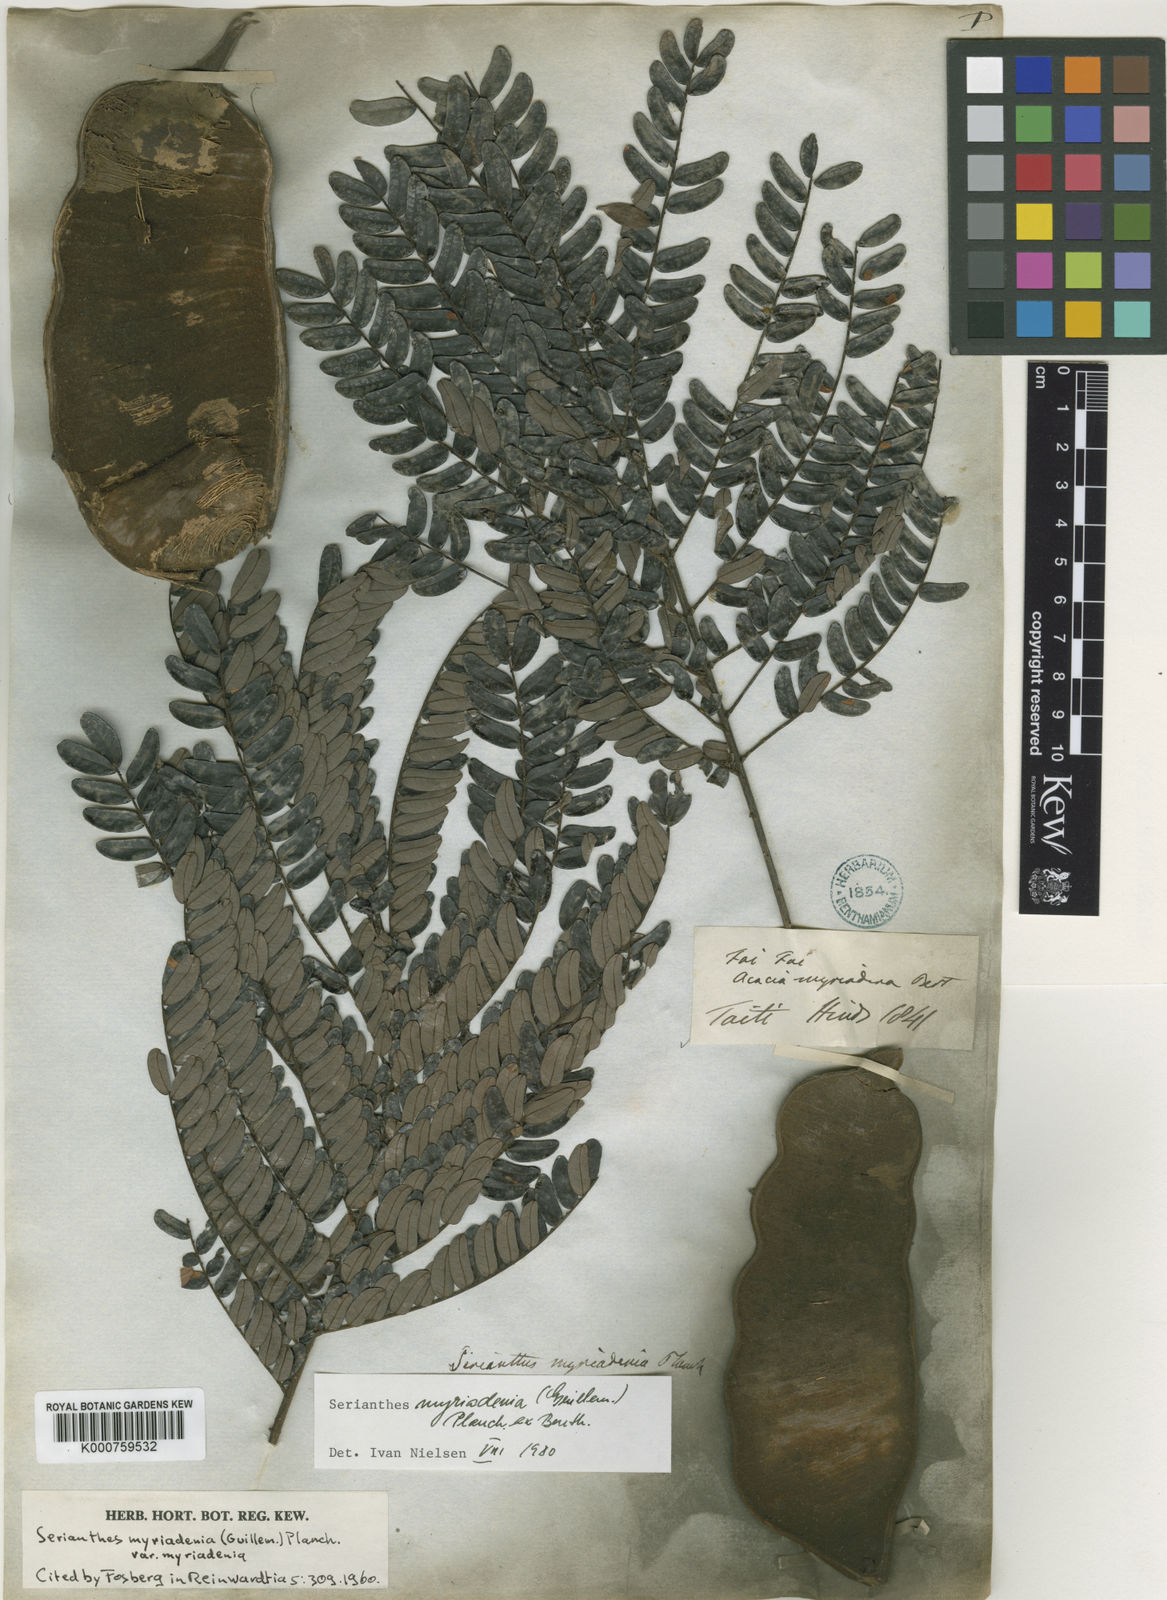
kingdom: Plantae
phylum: Tracheophyta
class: Magnoliopsida
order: Fabales
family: Fabaceae
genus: Serianthes
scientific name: Serianthes
